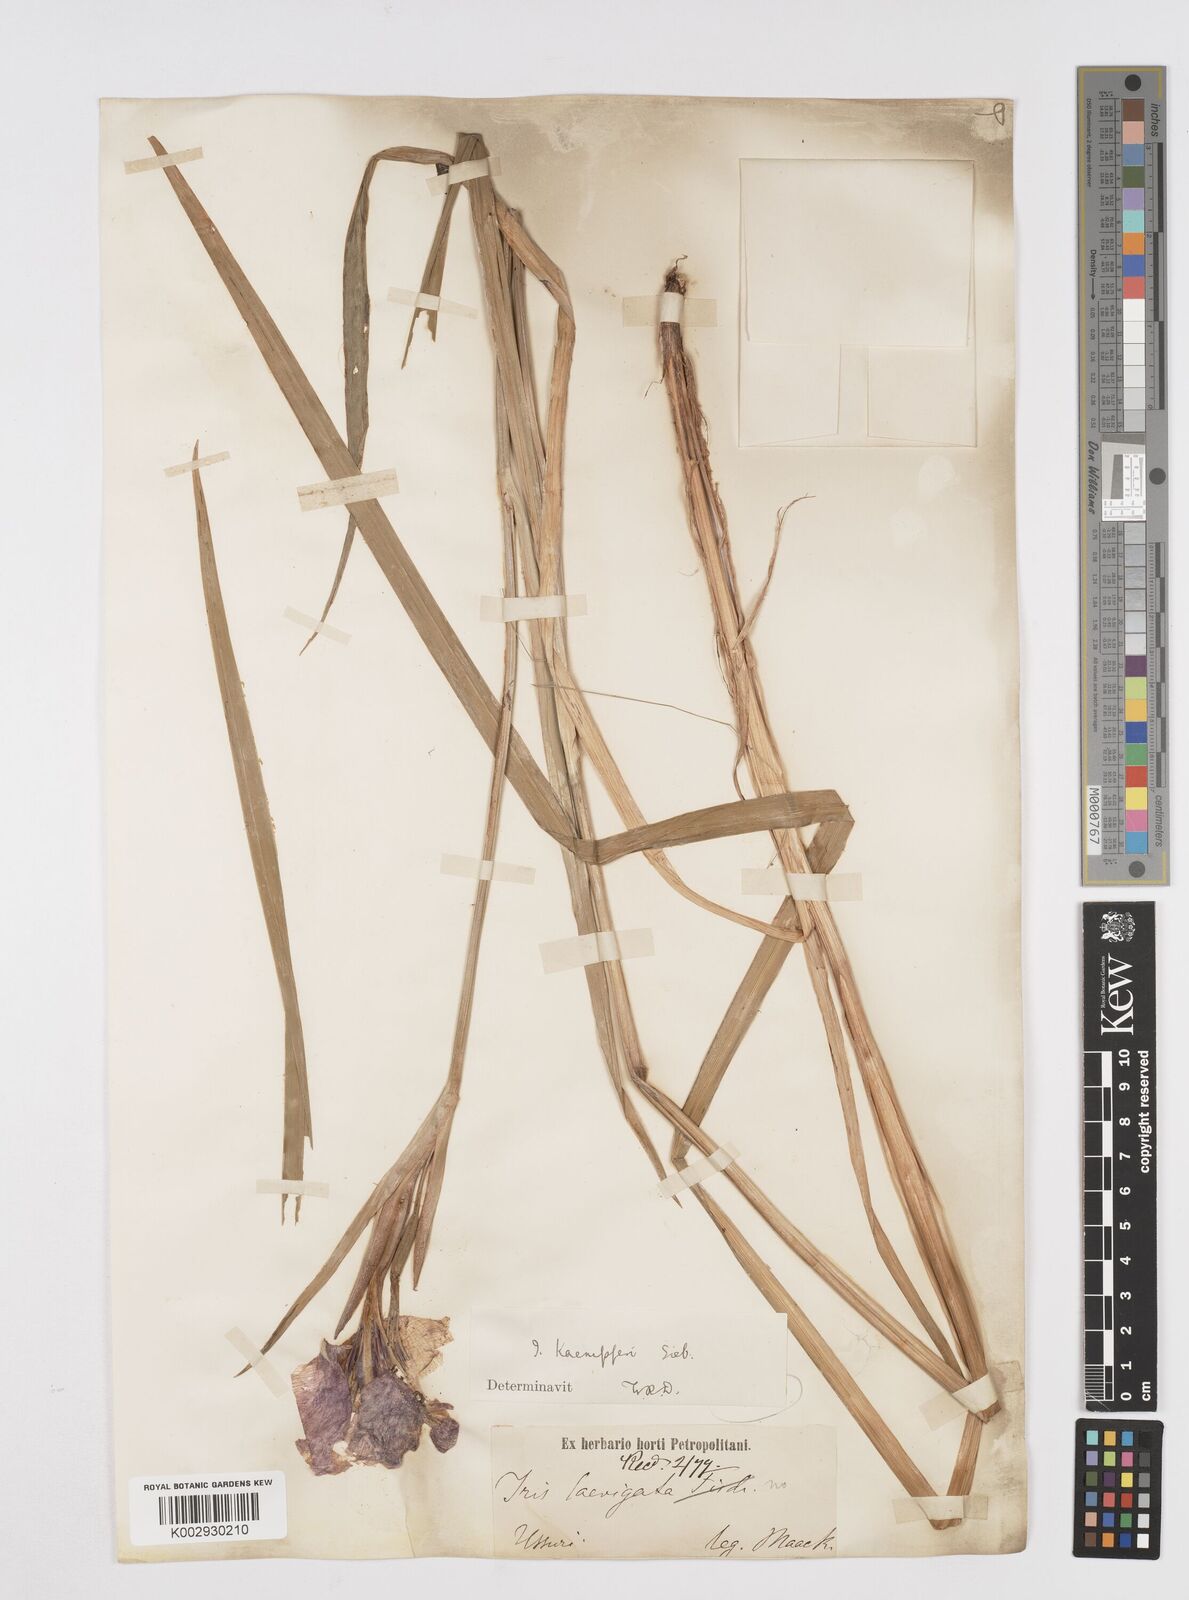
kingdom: Plantae
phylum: Tracheophyta
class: Liliopsida
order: Asparagales
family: Iridaceae
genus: Iris
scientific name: Iris ensata
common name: Beaked iris
